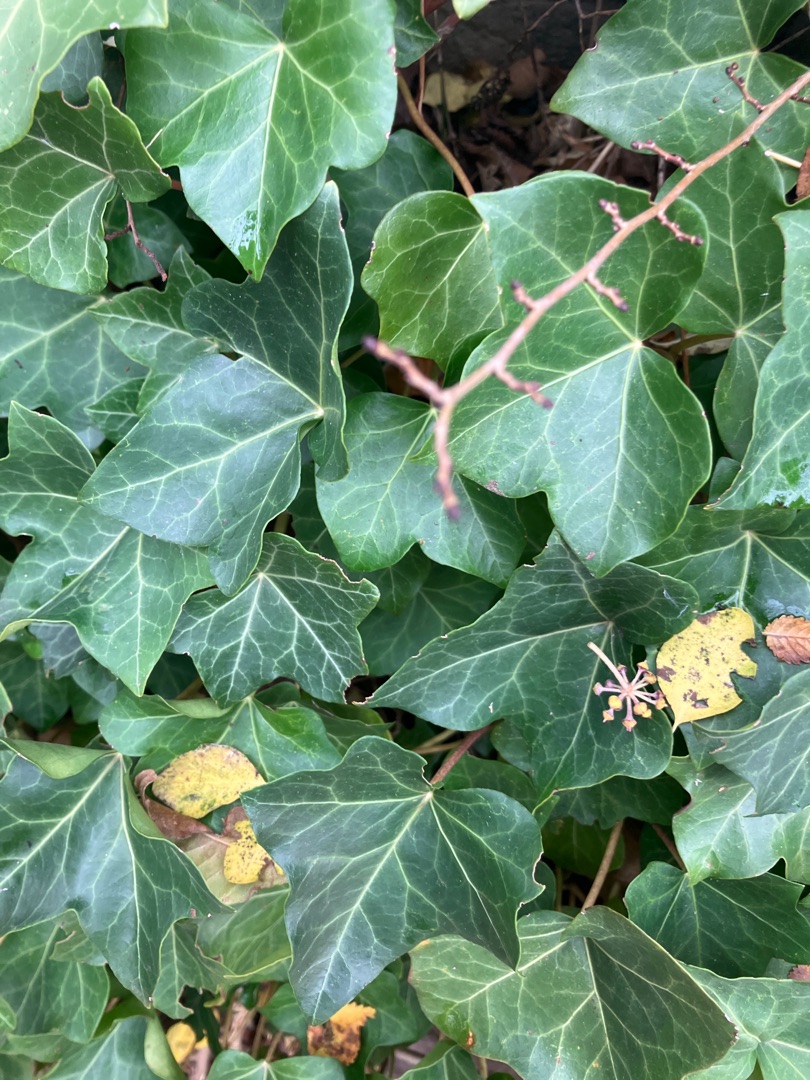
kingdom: Plantae
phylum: Tracheophyta
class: Magnoliopsida
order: Apiales
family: Araliaceae
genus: Hedera
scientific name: Hedera helix
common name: Vedbend
